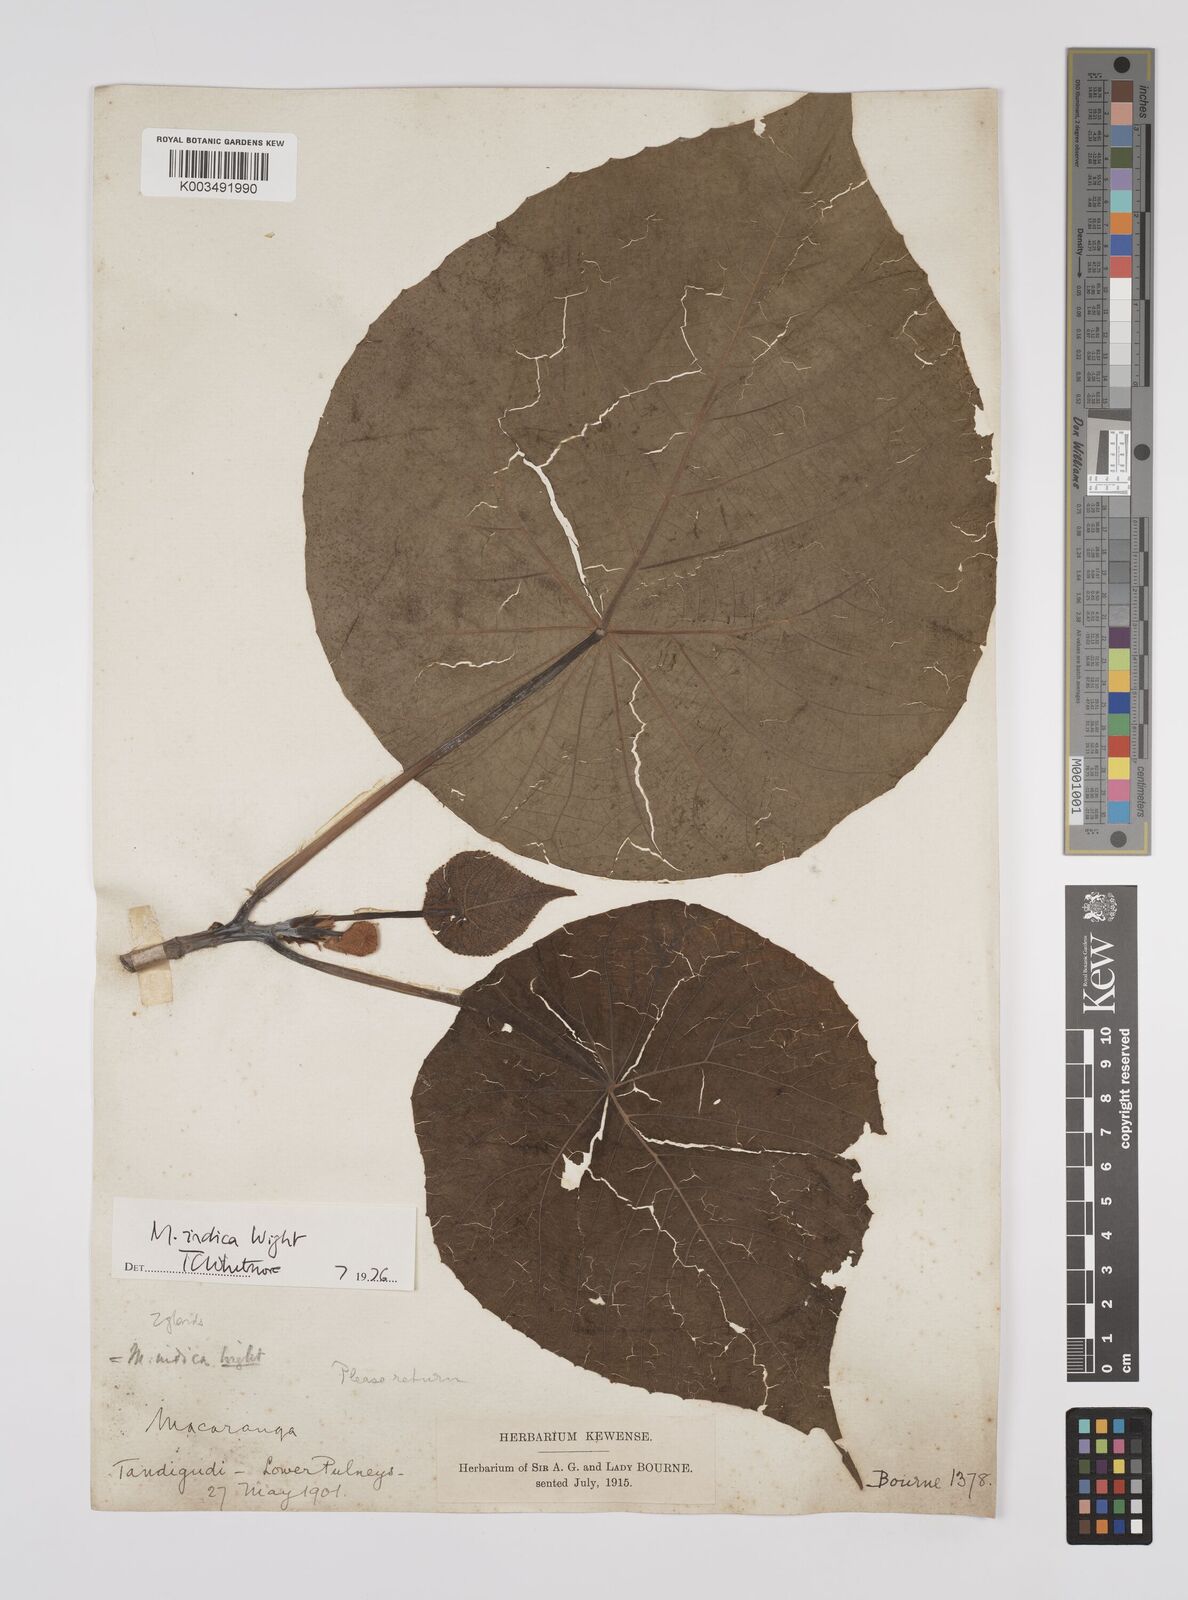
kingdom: Plantae
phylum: Tracheophyta
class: Magnoliopsida
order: Malpighiales
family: Euphorbiaceae
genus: Macaranga
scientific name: Macaranga indica
